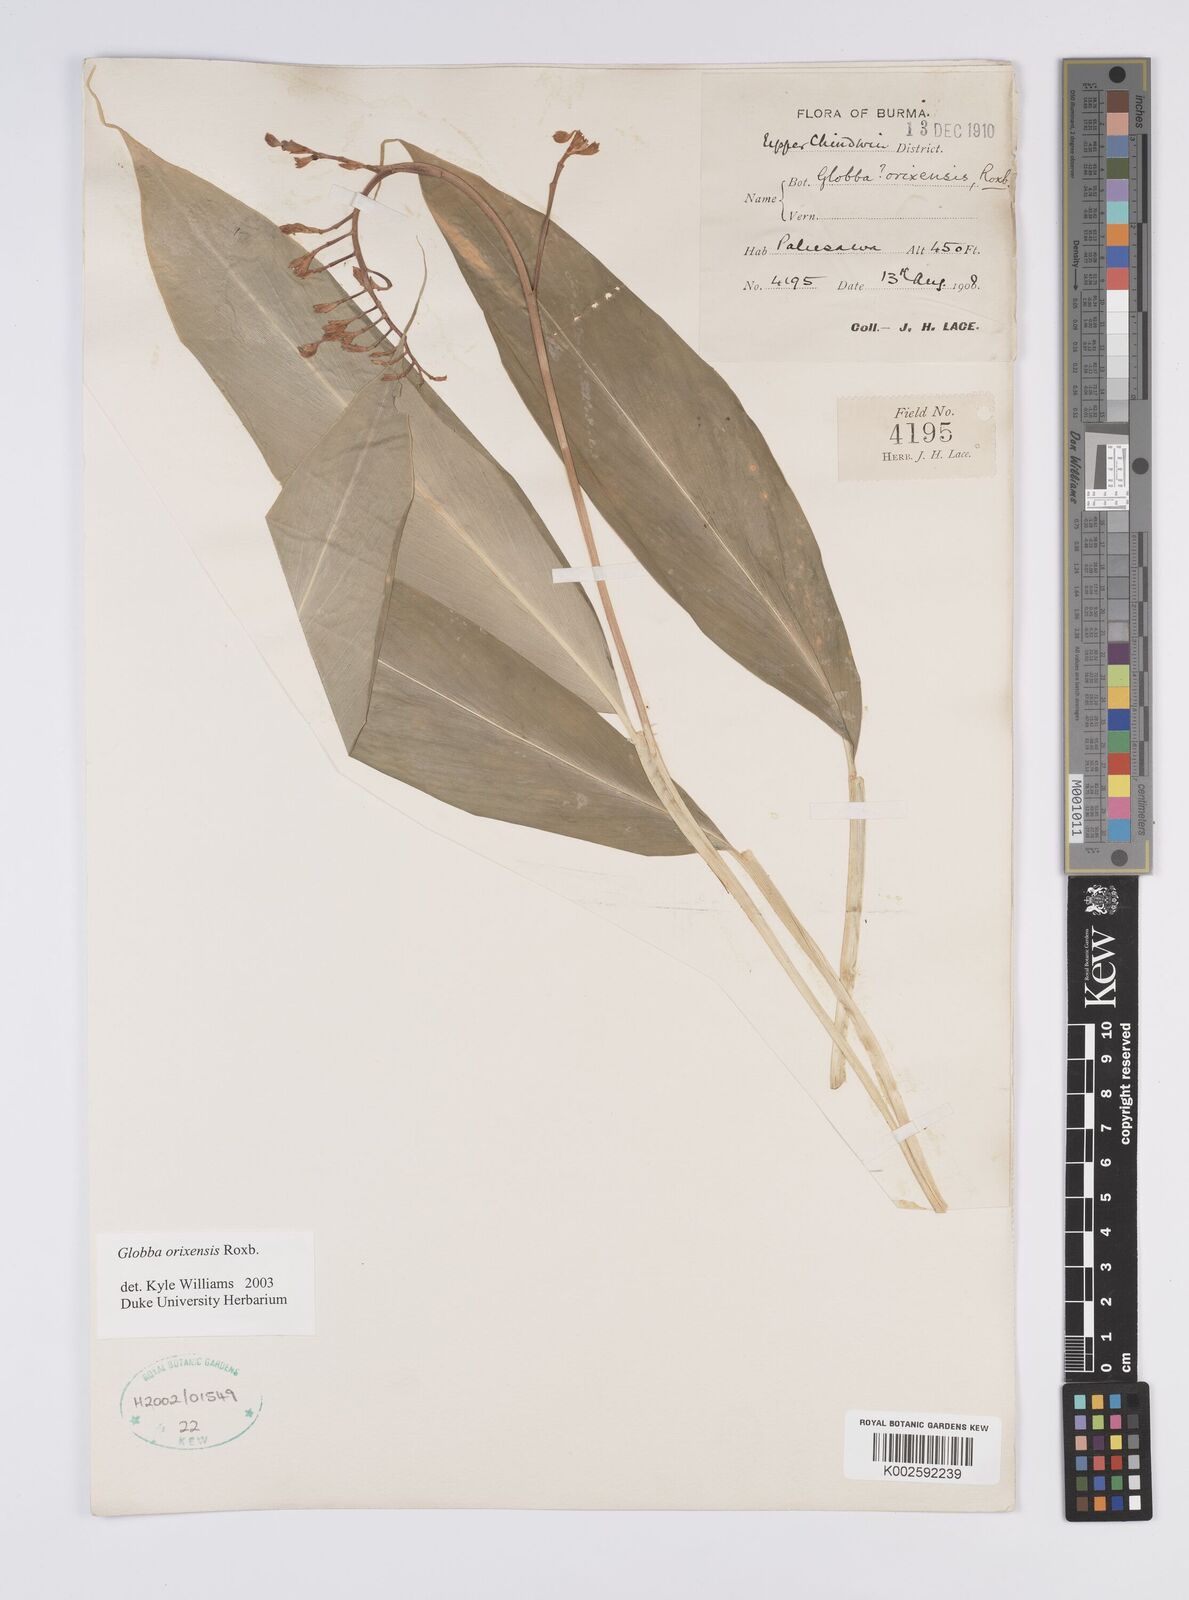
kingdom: Plantae
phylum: Tracheophyta
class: Liliopsida
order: Zingiberales
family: Zingiberaceae
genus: Globba
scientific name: Globba orixensis
